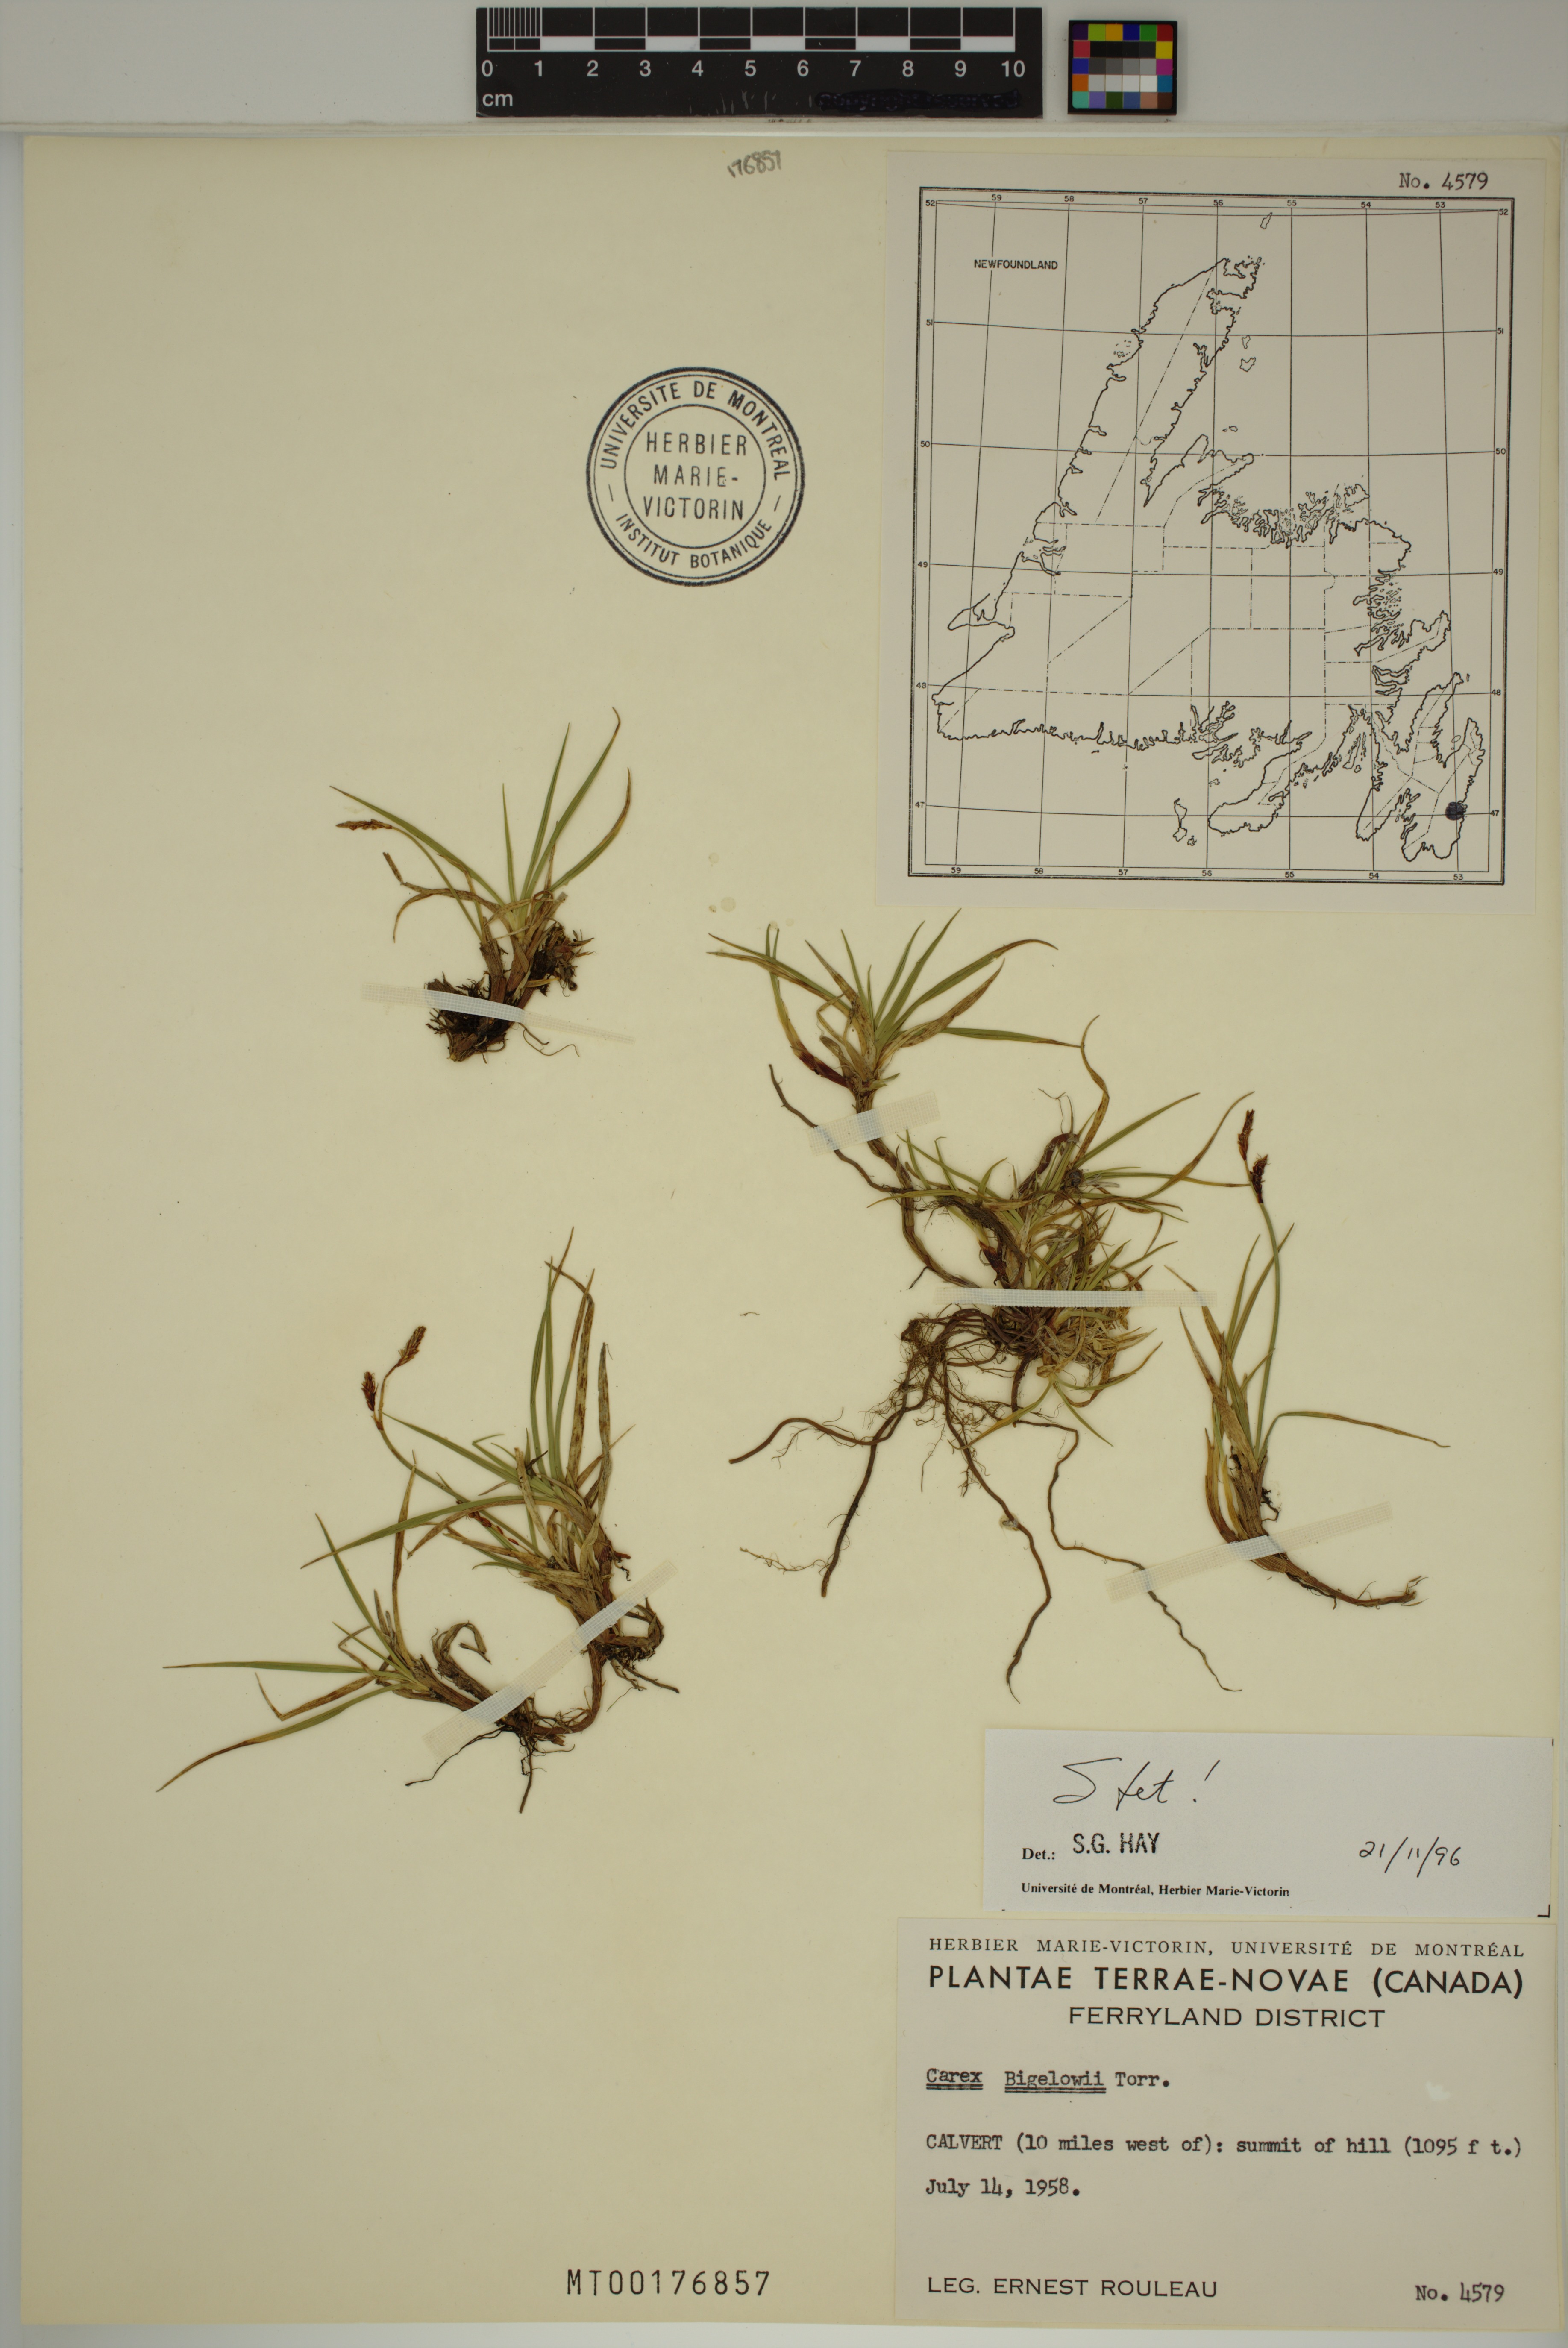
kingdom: Plantae
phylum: Tracheophyta
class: Liliopsida
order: Poales
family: Cyperaceae
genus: Carex
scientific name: Carex bigelowii
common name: Stiff sedge
